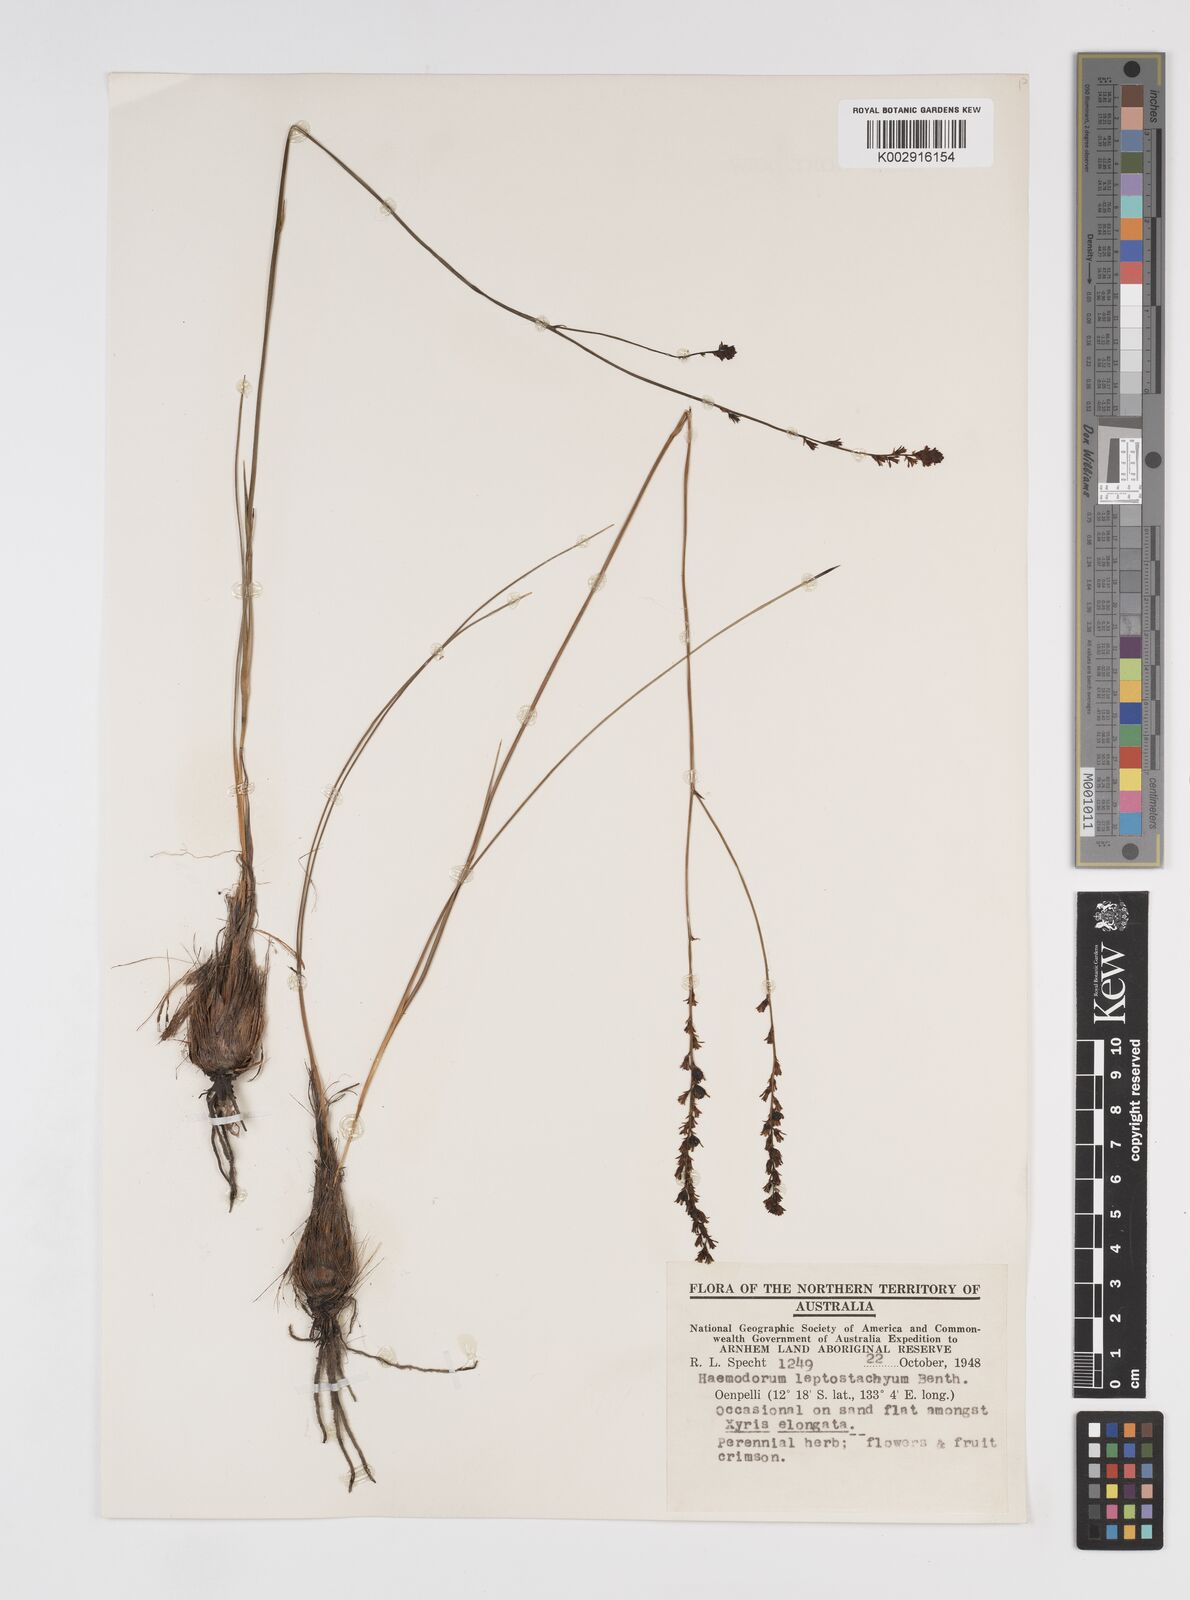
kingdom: Plantae
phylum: Tracheophyta
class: Liliopsida
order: Commelinales
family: Haemodoraceae
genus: Haemodorum
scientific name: Haemodorum parviflorum
